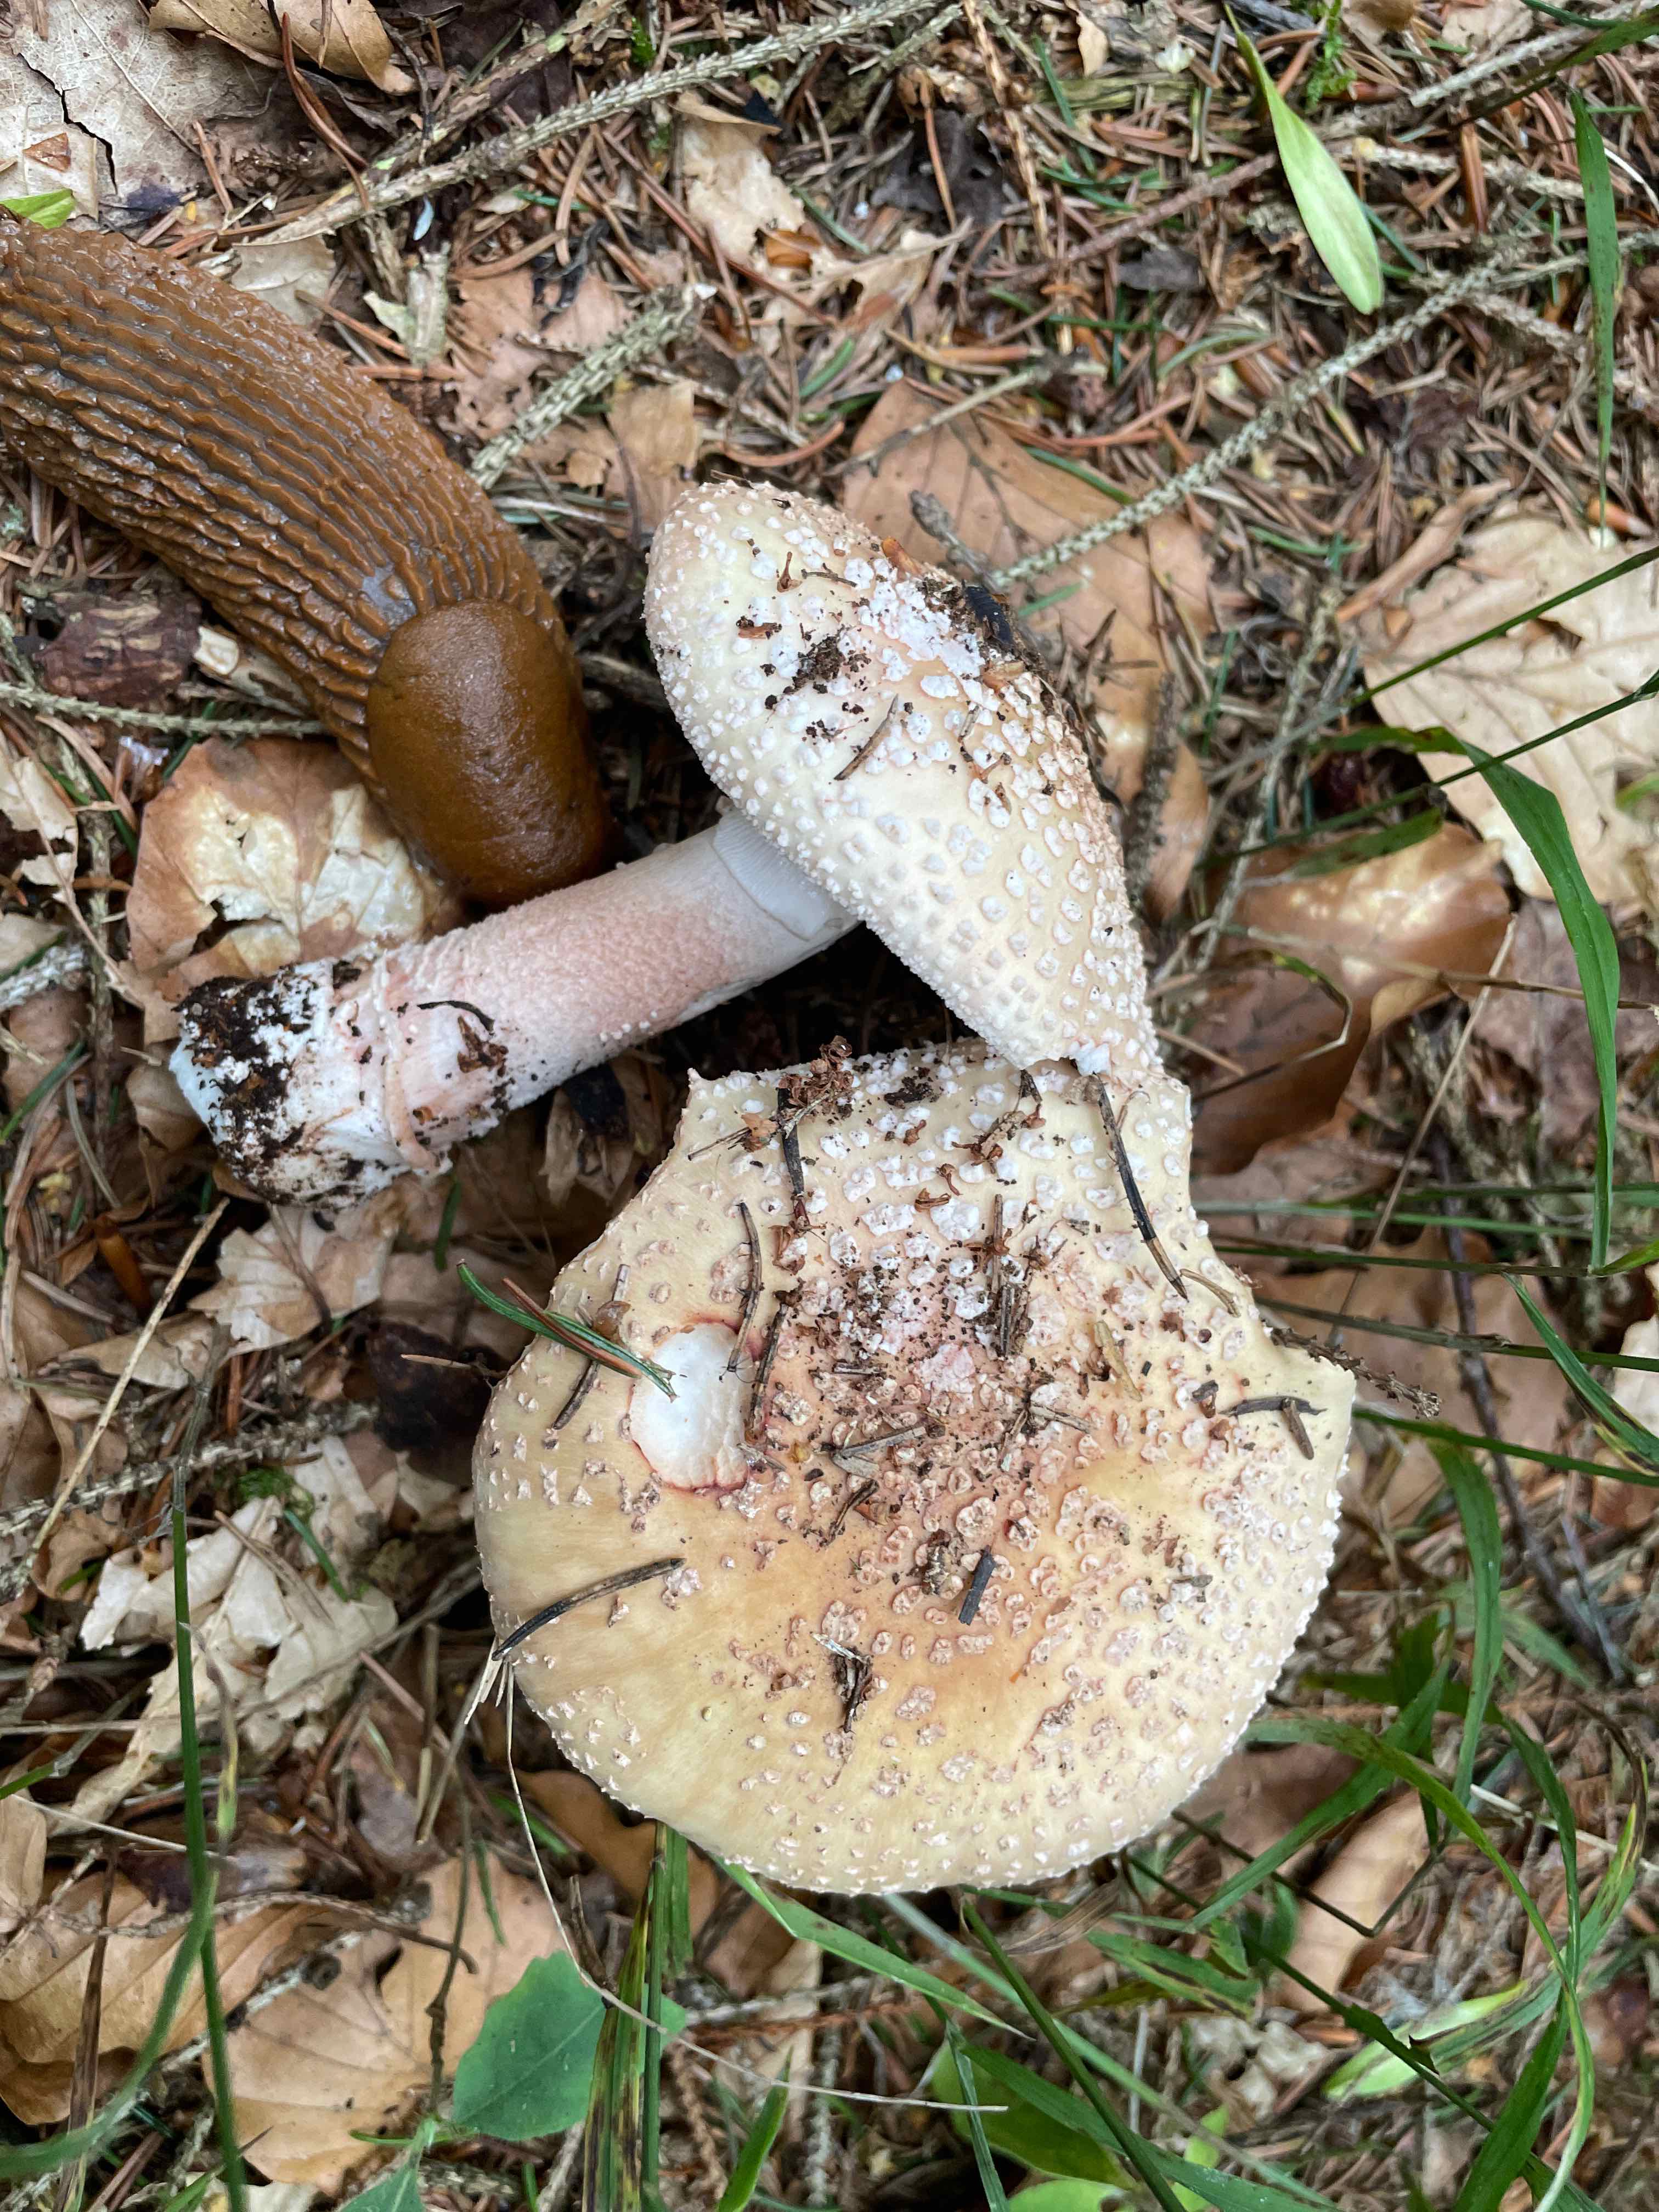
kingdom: Fungi
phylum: Basidiomycota
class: Agaricomycetes
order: Agaricales
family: Amanitaceae
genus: Amanita
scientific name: Amanita rubescens
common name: rødmende fluesvamp
